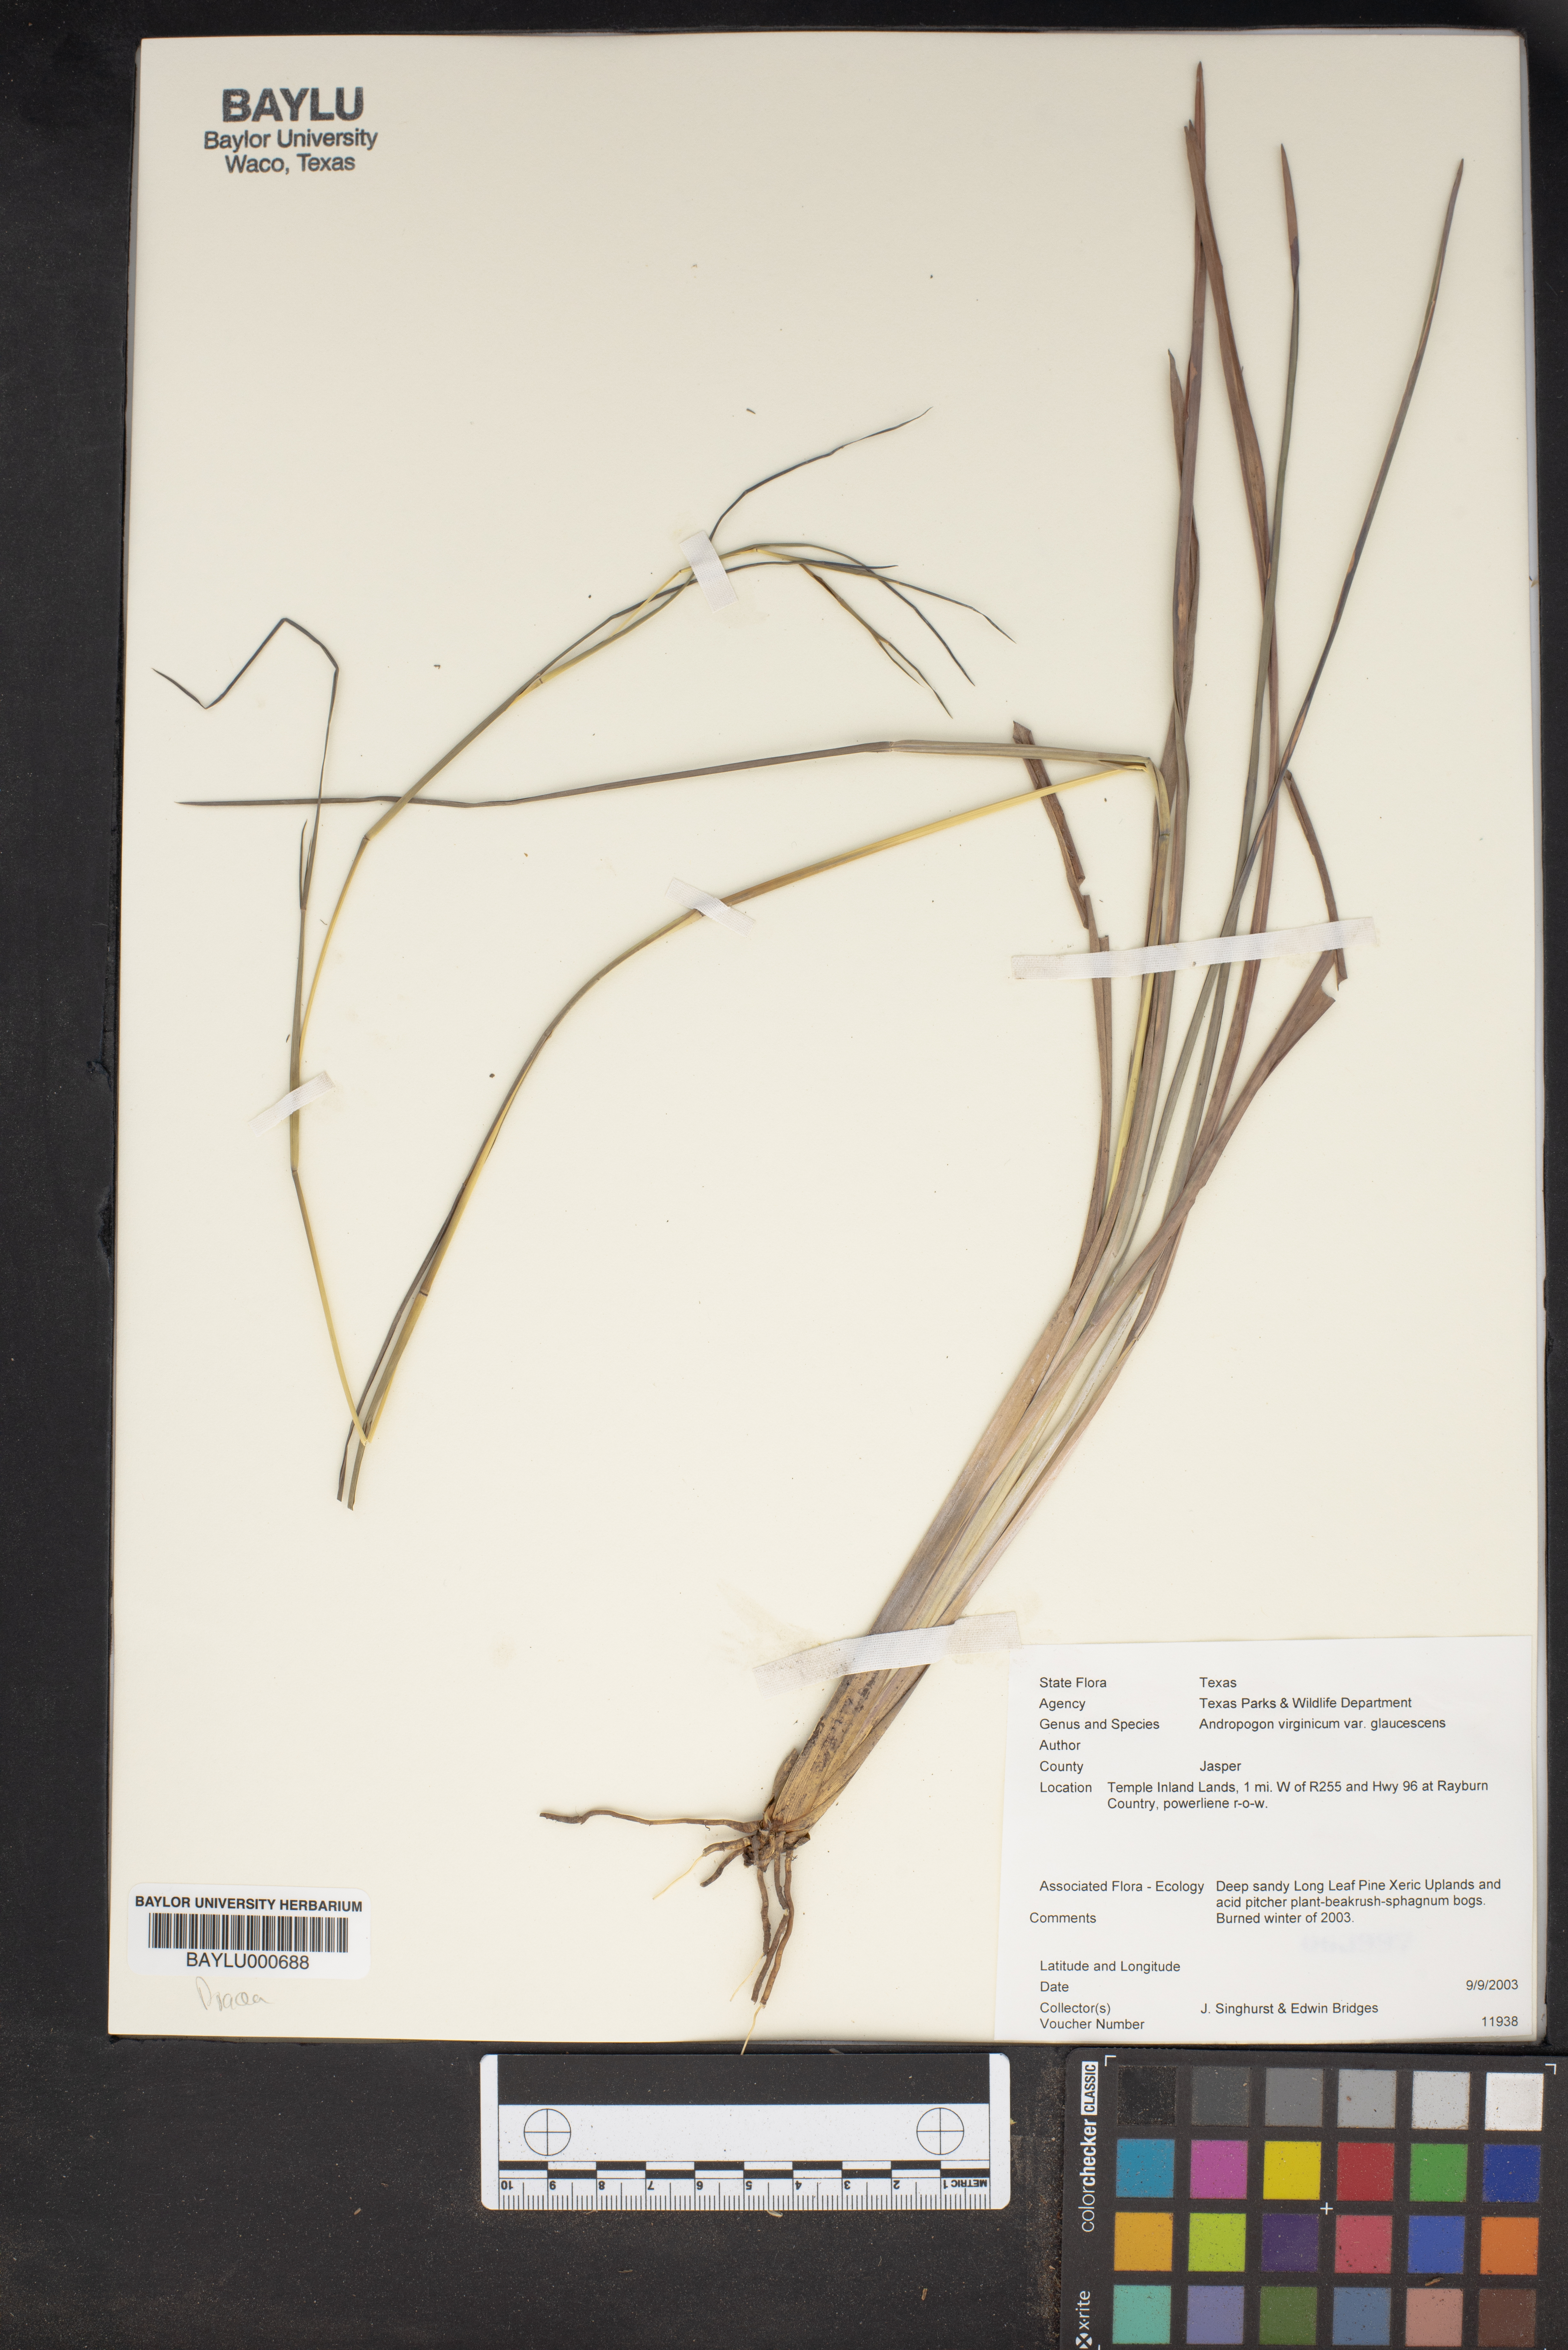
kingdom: Plantae
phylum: Tracheophyta
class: Liliopsida
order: Poales
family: Poaceae
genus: Andropogon
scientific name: Andropogon virginicus
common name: Broomsedge bluestem
